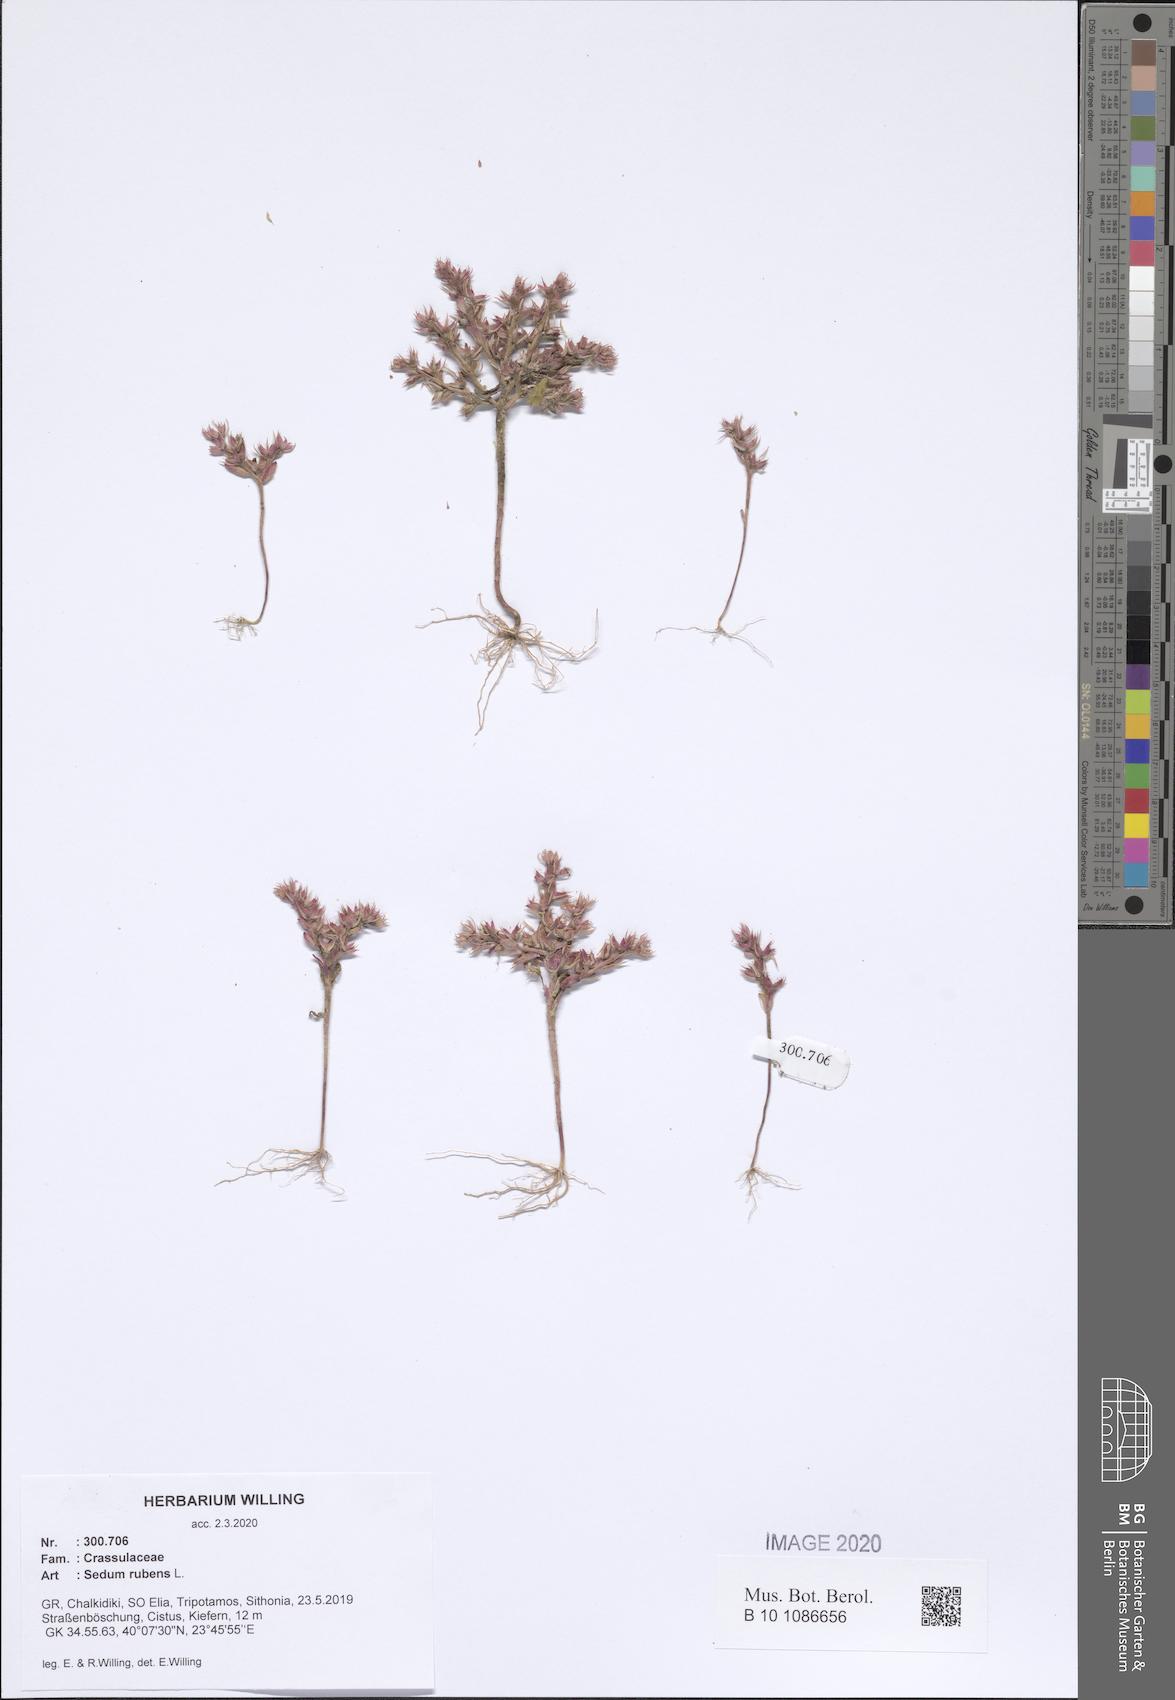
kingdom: Plantae
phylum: Tracheophyta
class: Magnoliopsida
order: Saxifragales
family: Crassulaceae
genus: Sedum
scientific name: Sedum rubens
